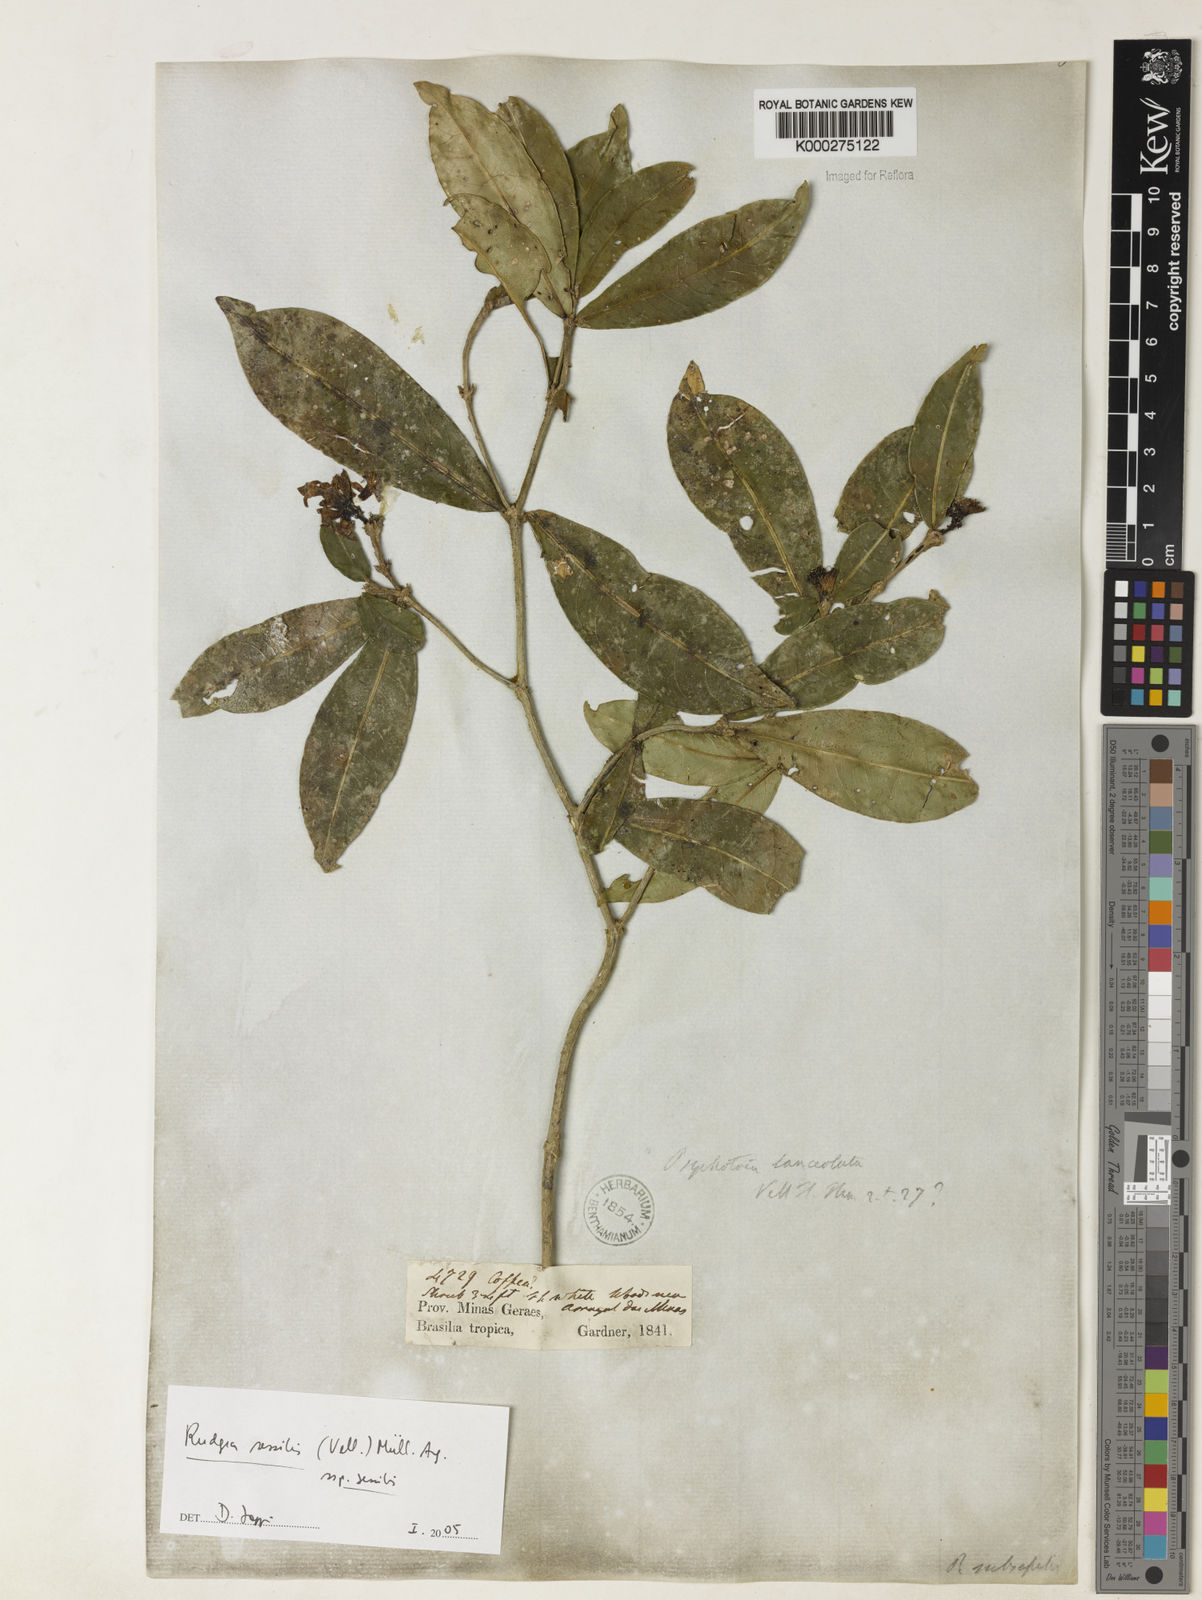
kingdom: Plantae
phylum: Tracheophyta
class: Magnoliopsida
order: Gentianales
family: Rubiaceae
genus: Rudgea
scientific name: Rudgea sessilis
